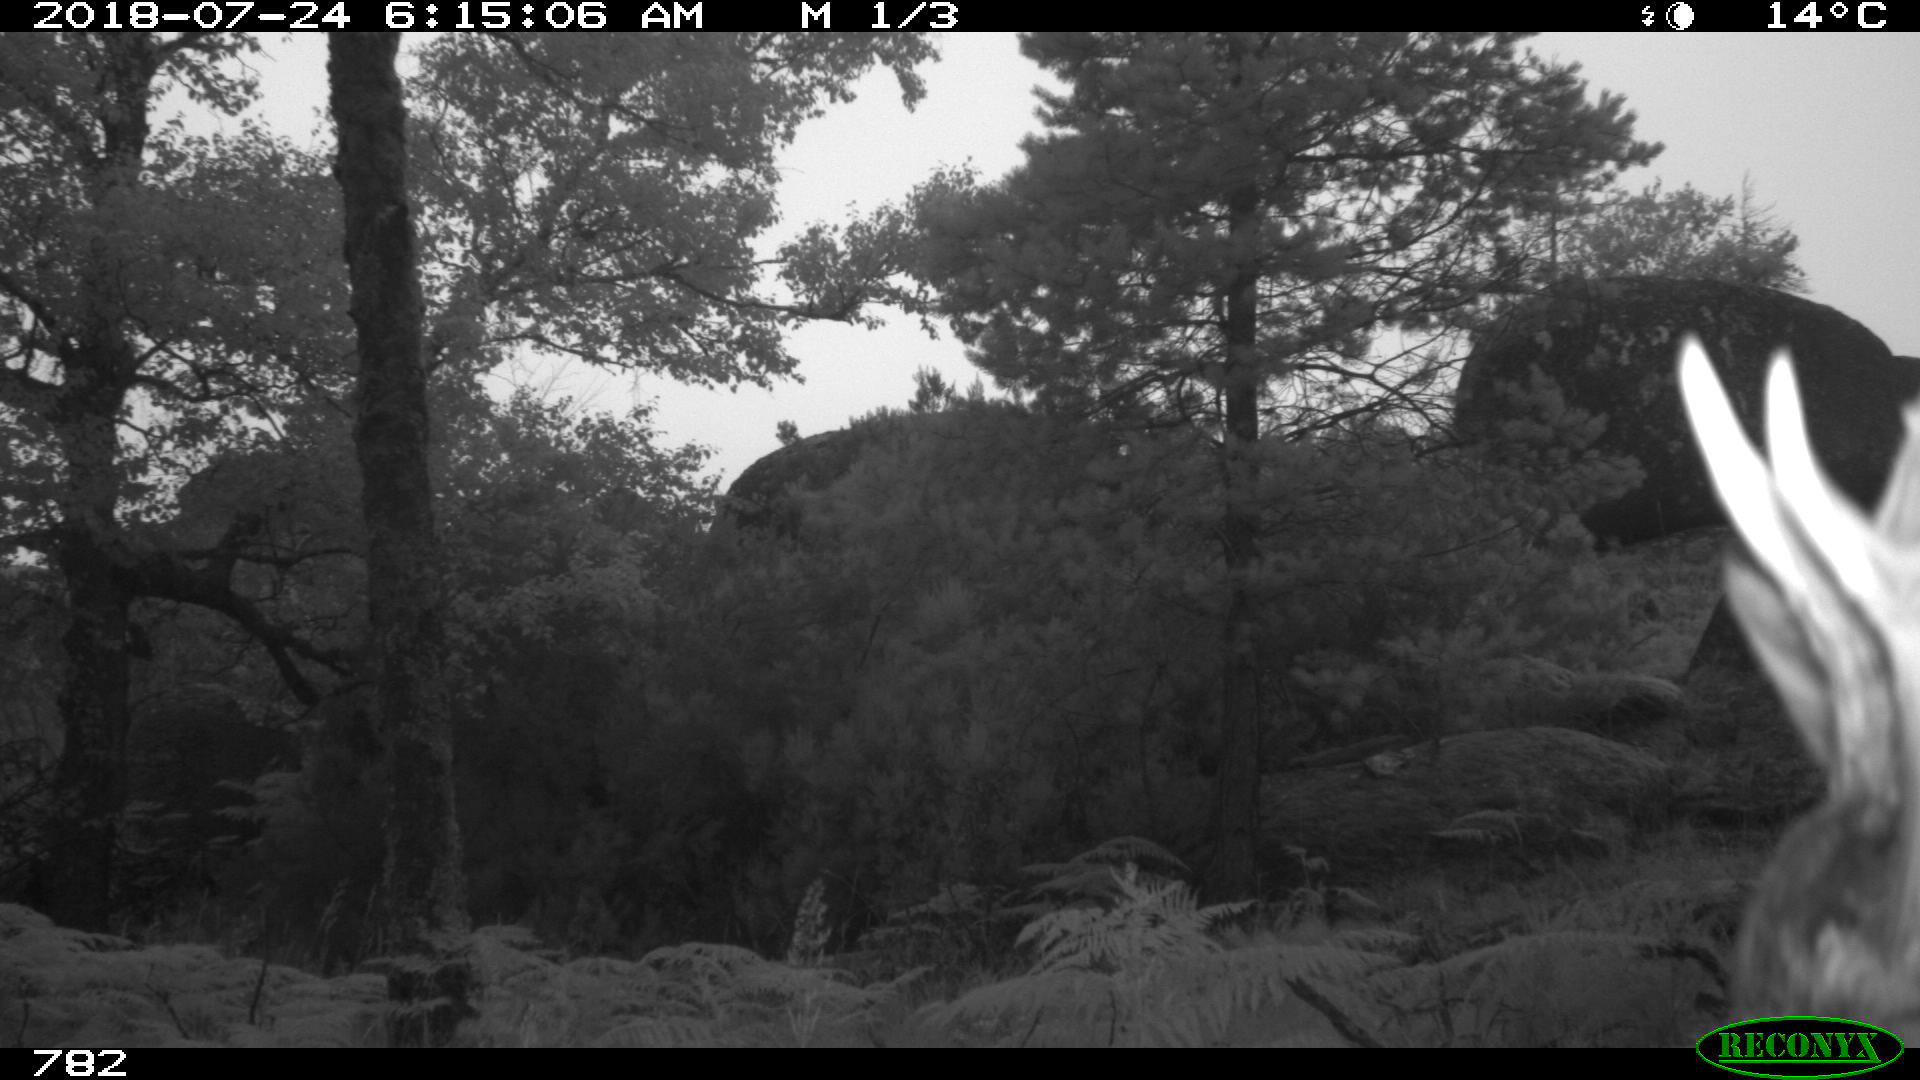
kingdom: Animalia
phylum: Chordata
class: Mammalia
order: Artiodactyla
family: Cervidae
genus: Capreolus
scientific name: Capreolus capreolus
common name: Western roe deer
